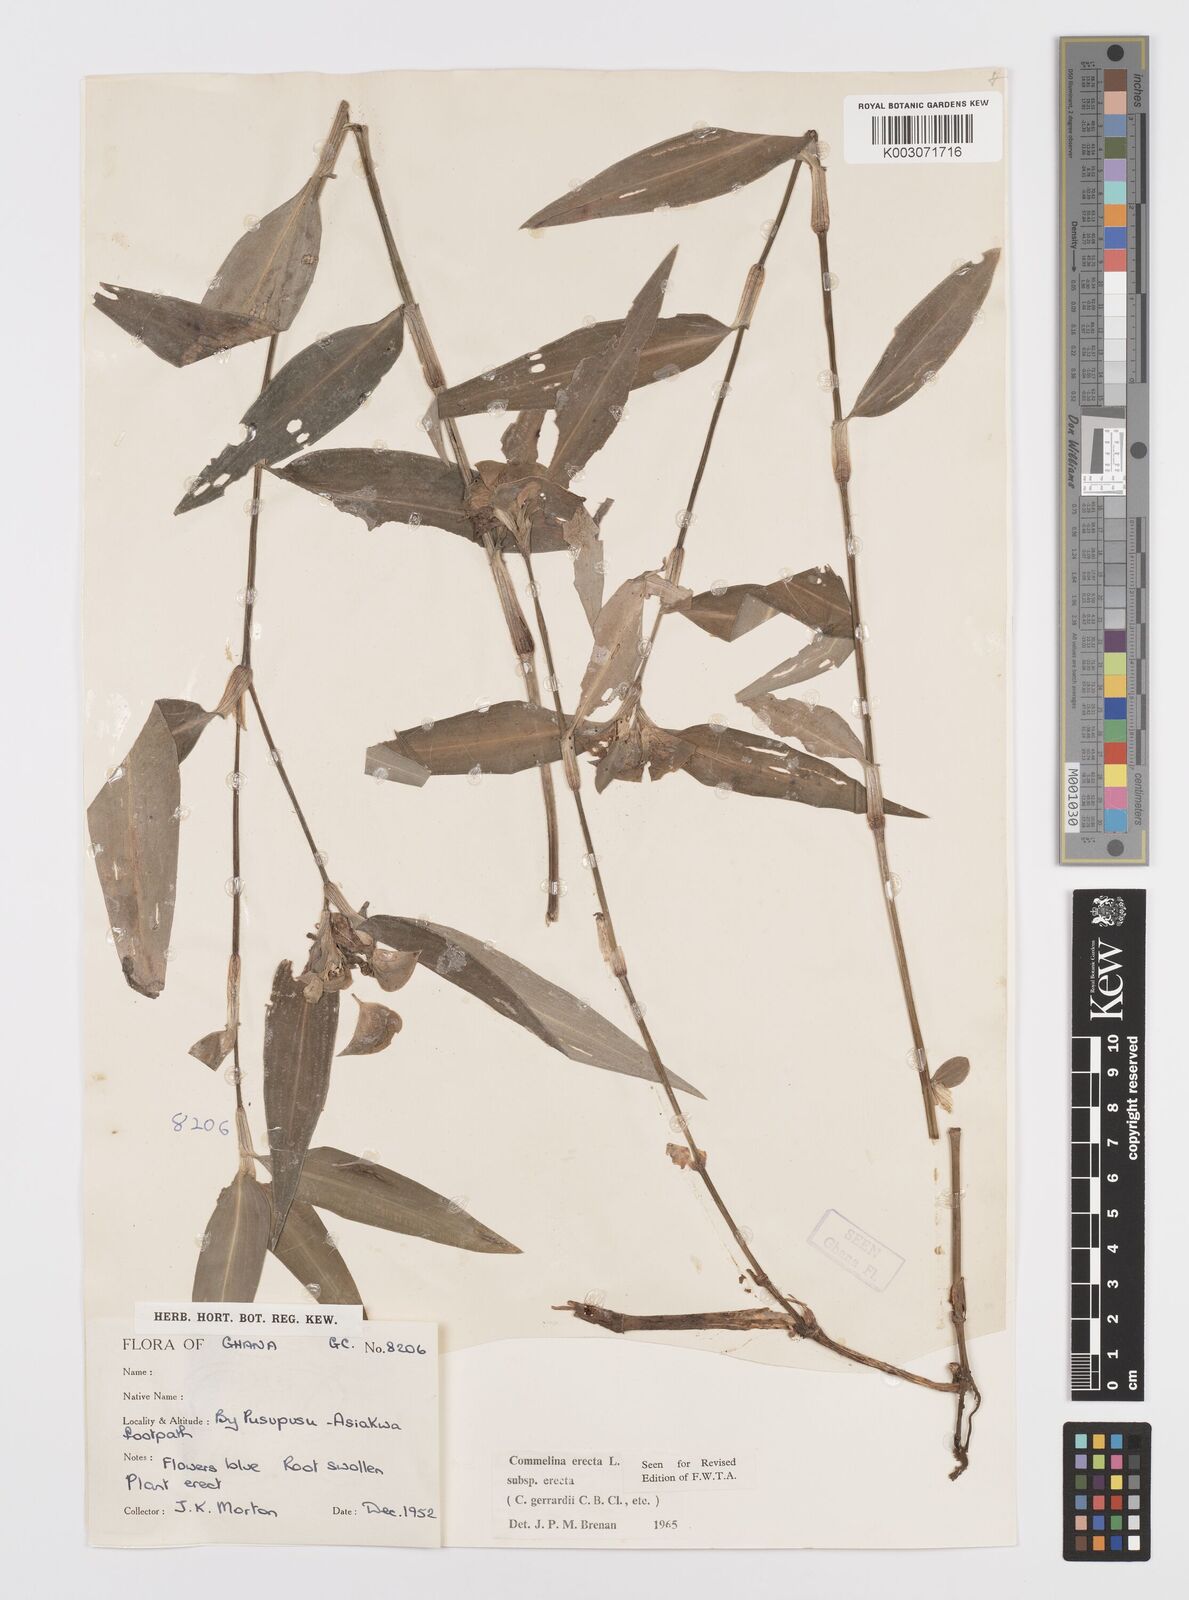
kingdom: Plantae
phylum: Tracheophyta
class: Liliopsida
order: Commelinales
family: Commelinaceae
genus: Commelina
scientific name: Commelina erecta
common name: Blousel blommetjie
